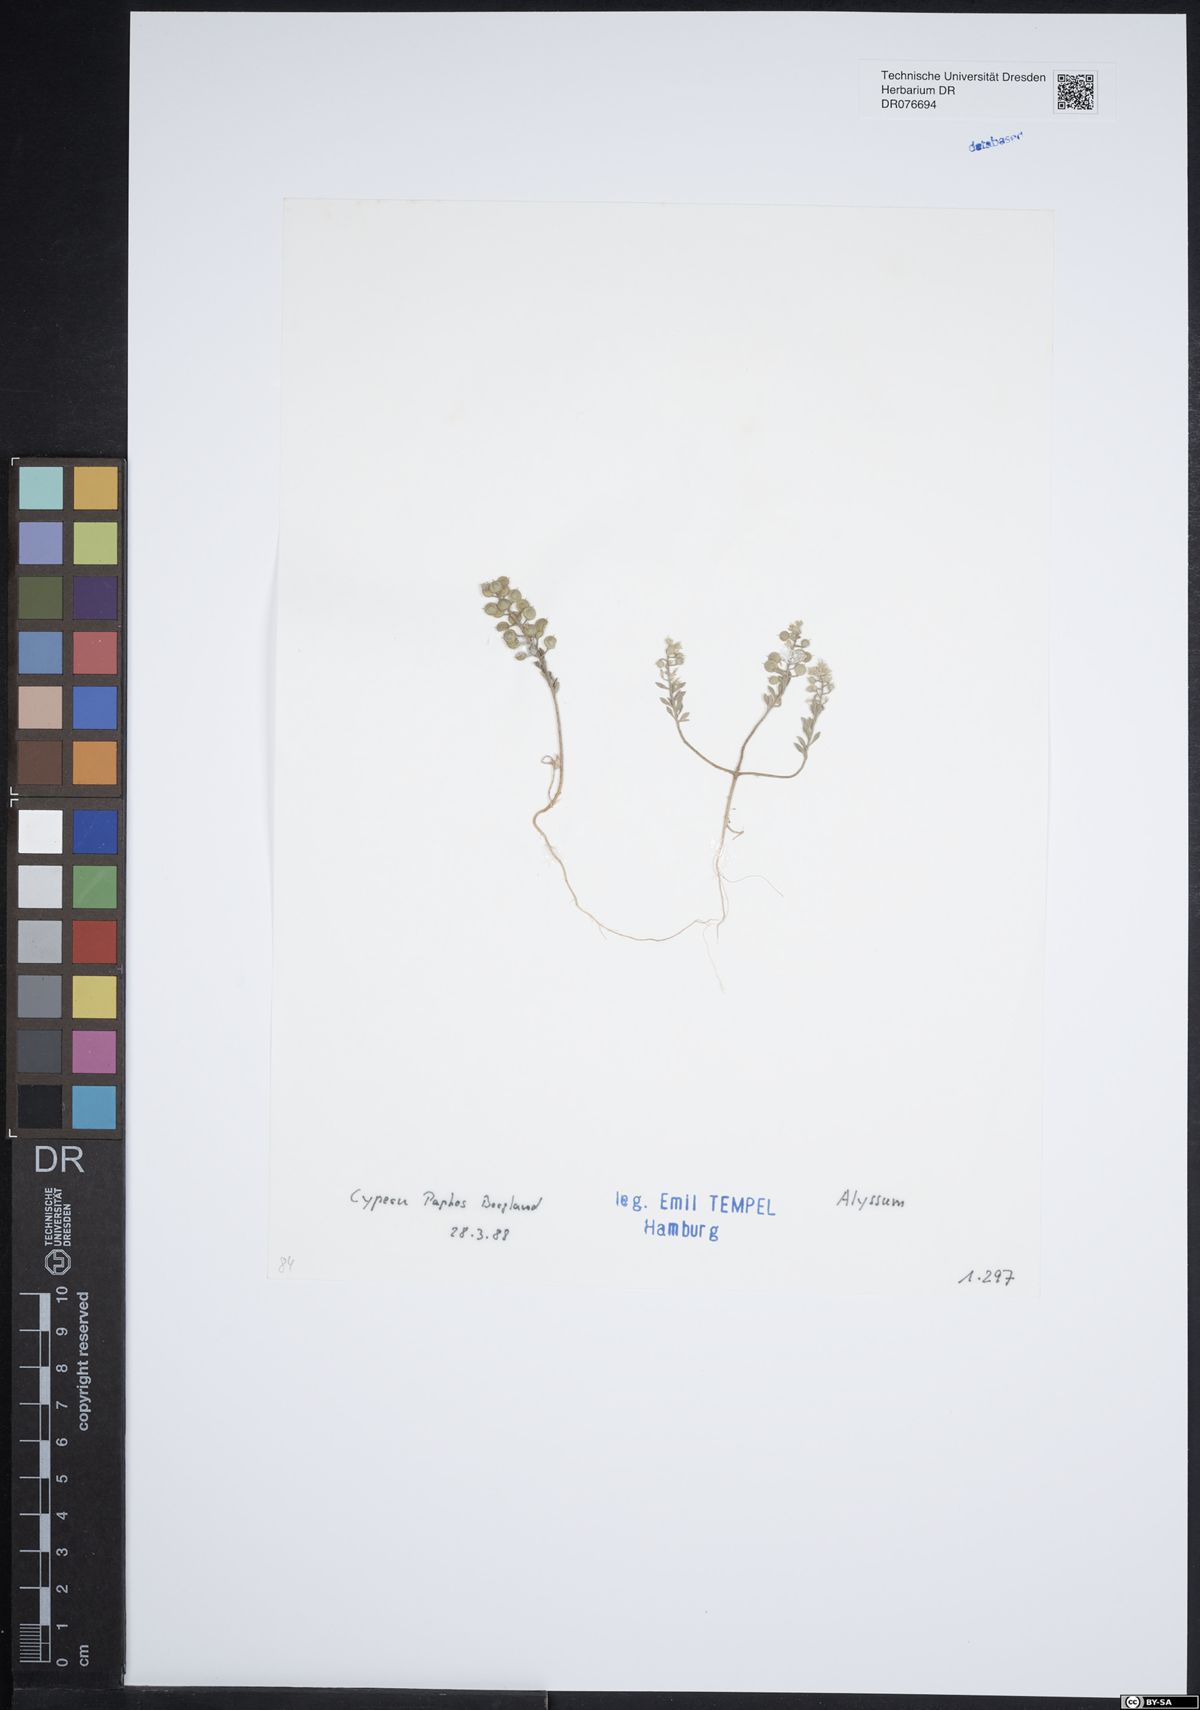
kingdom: Plantae
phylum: Tracheophyta
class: Magnoliopsida
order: Brassicales
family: Brassicaceae
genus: Alyssum
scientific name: Alyssum
